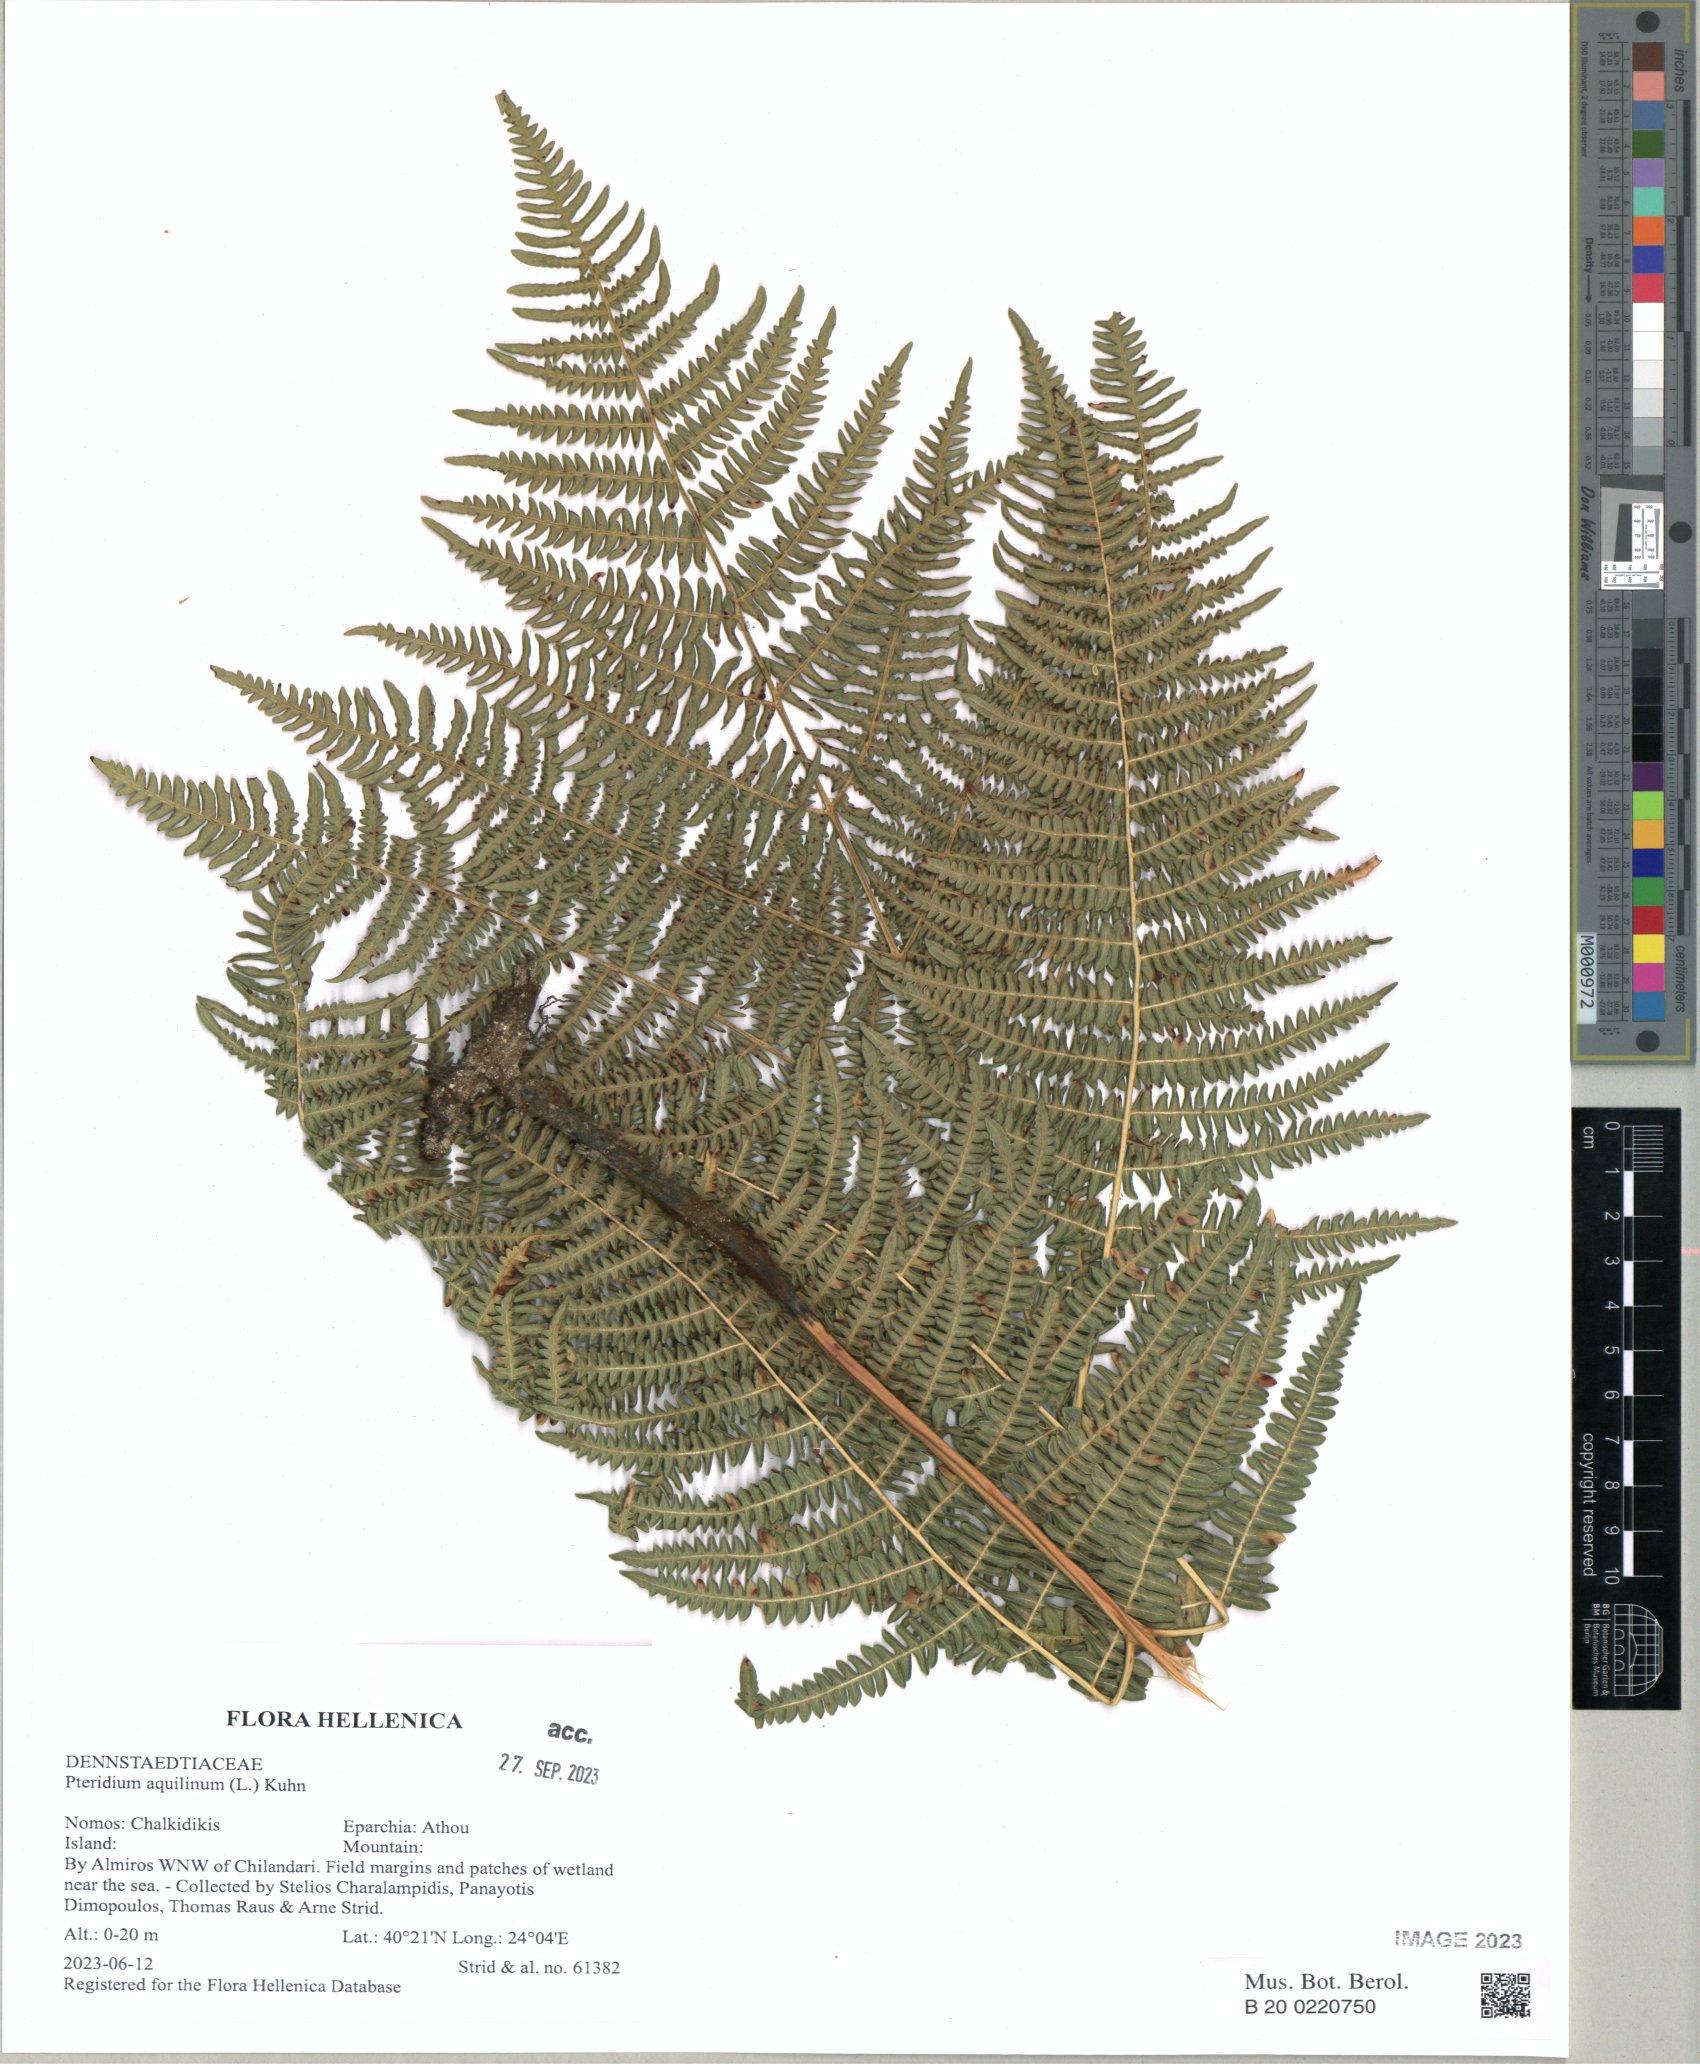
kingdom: Plantae
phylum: Tracheophyta
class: Polypodiopsida
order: Polypodiales
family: Dennstaedtiaceae
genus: Pteridium
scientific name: Pteridium aquilinum
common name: Bracken
